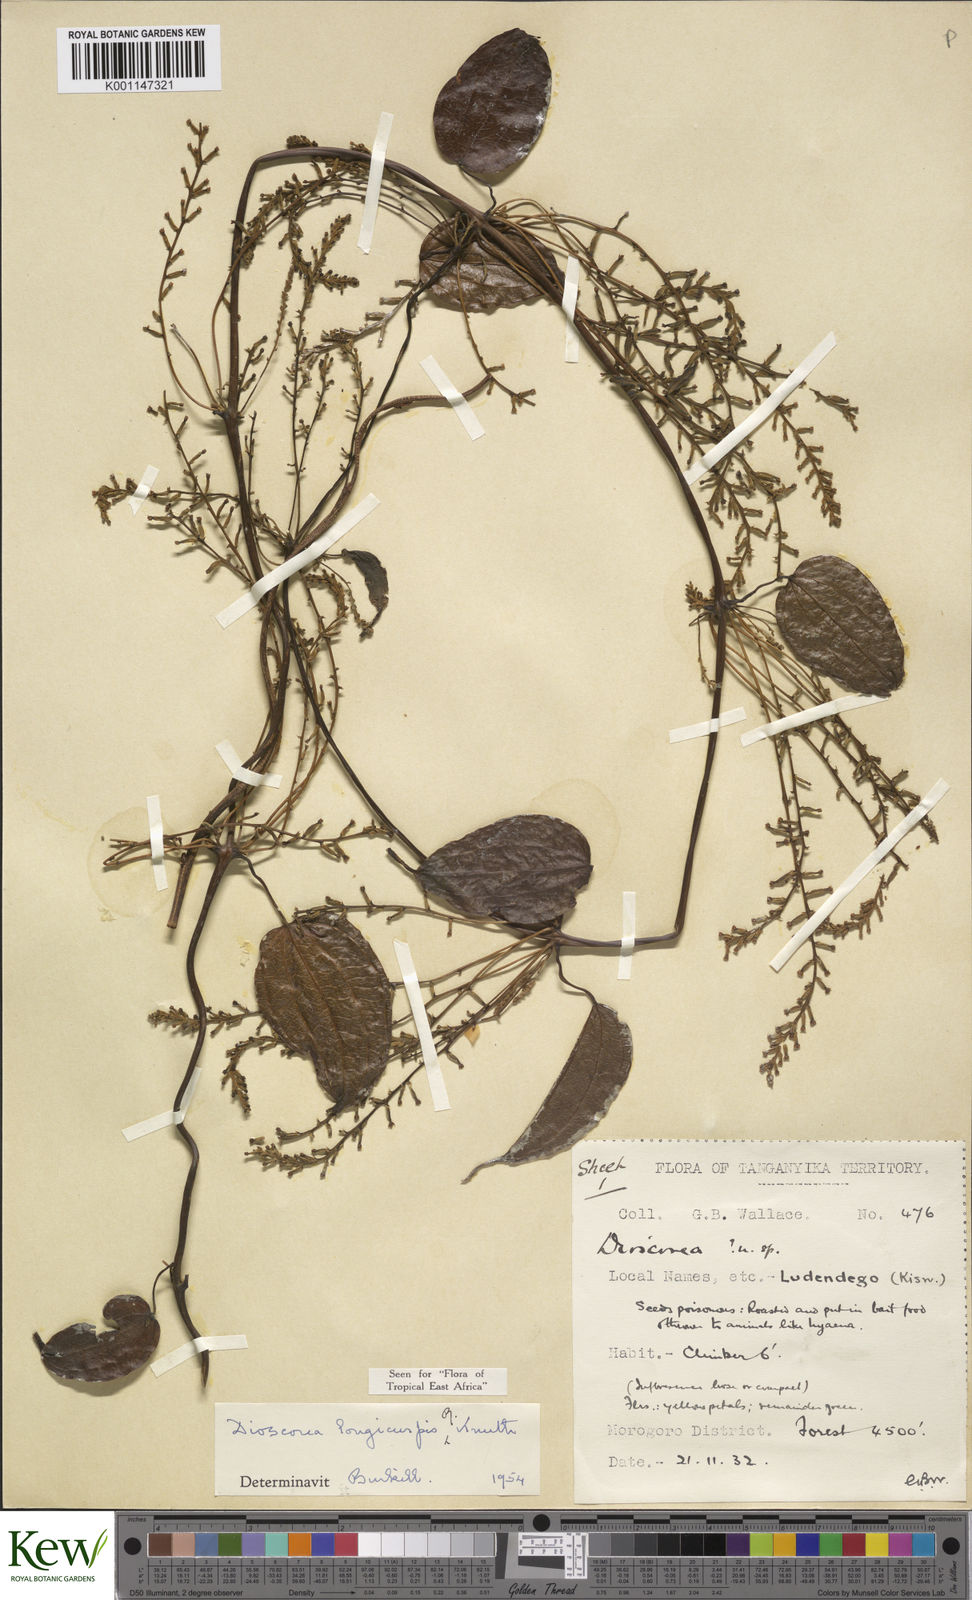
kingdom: Plantae
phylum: Tracheophyta
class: Liliopsida
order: Dioscoreales
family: Dioscoreaceae
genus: Dioscorea
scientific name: Dioscorea longicuspis
